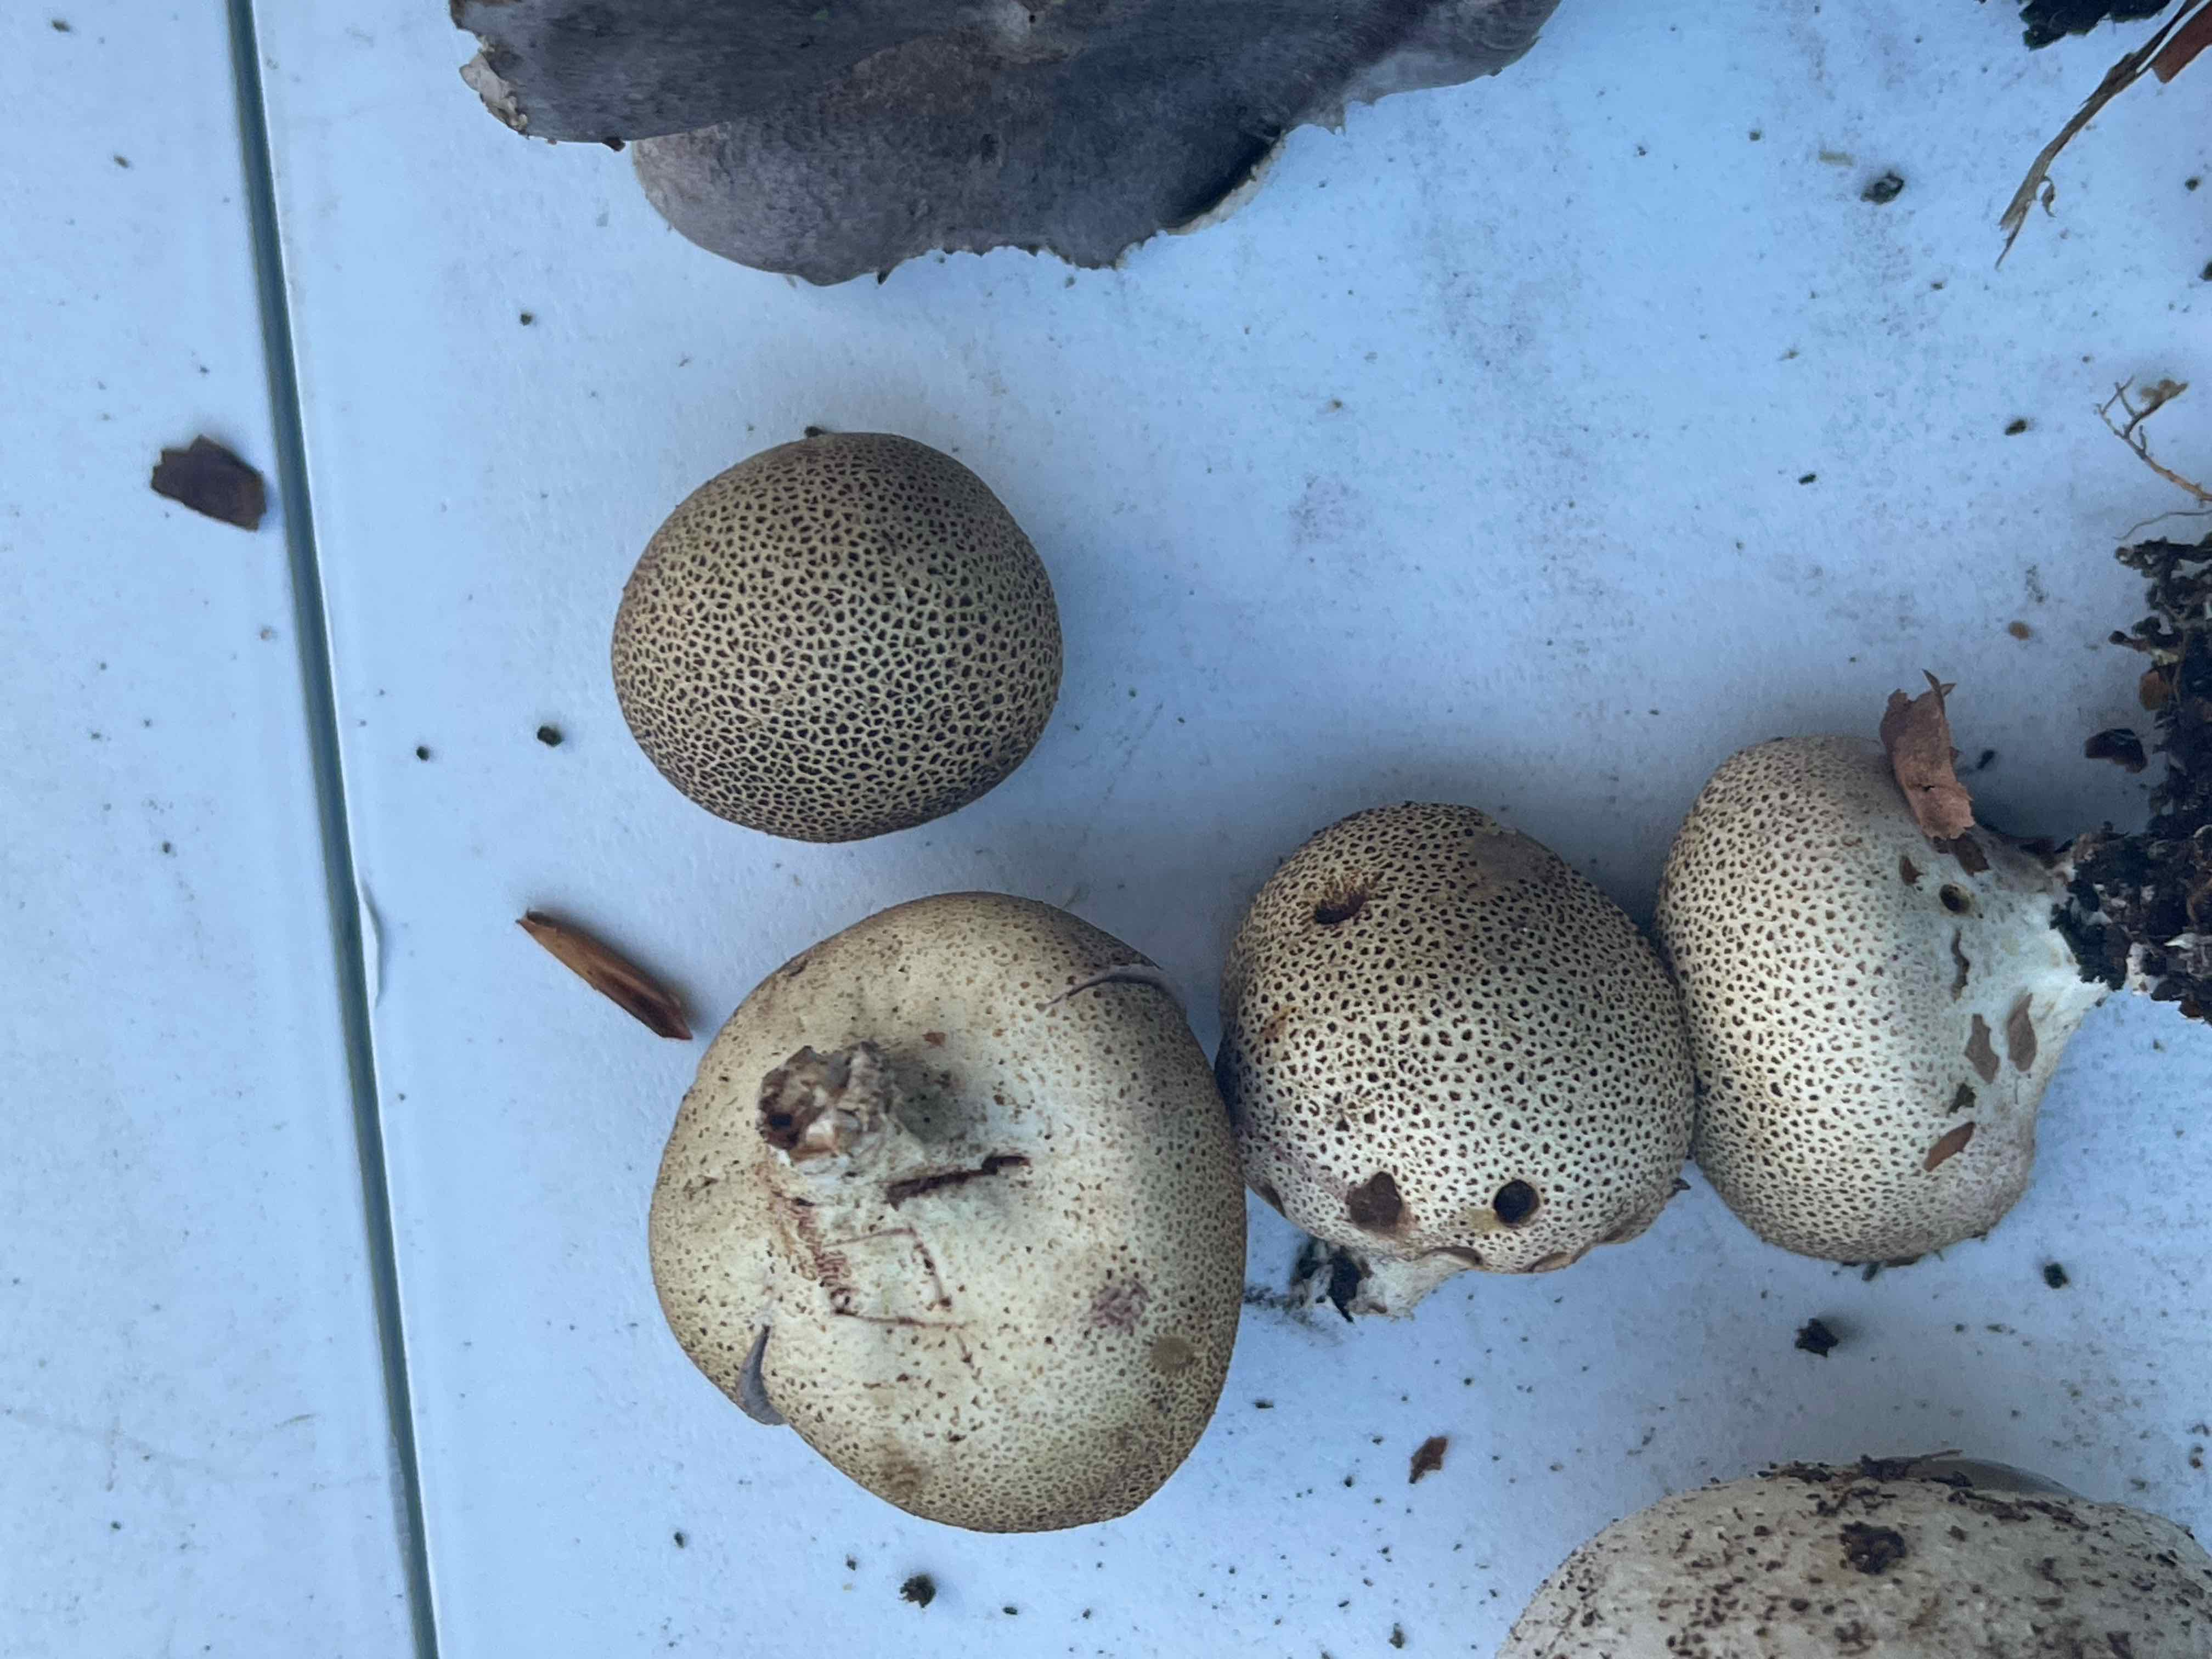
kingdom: Fungi
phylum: Basidiomycota
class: Agaricomycetes
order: Boletales
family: Sclerodermataceae
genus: Scleroderma
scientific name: Scleroderma areolatum
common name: plettet bruskbold
